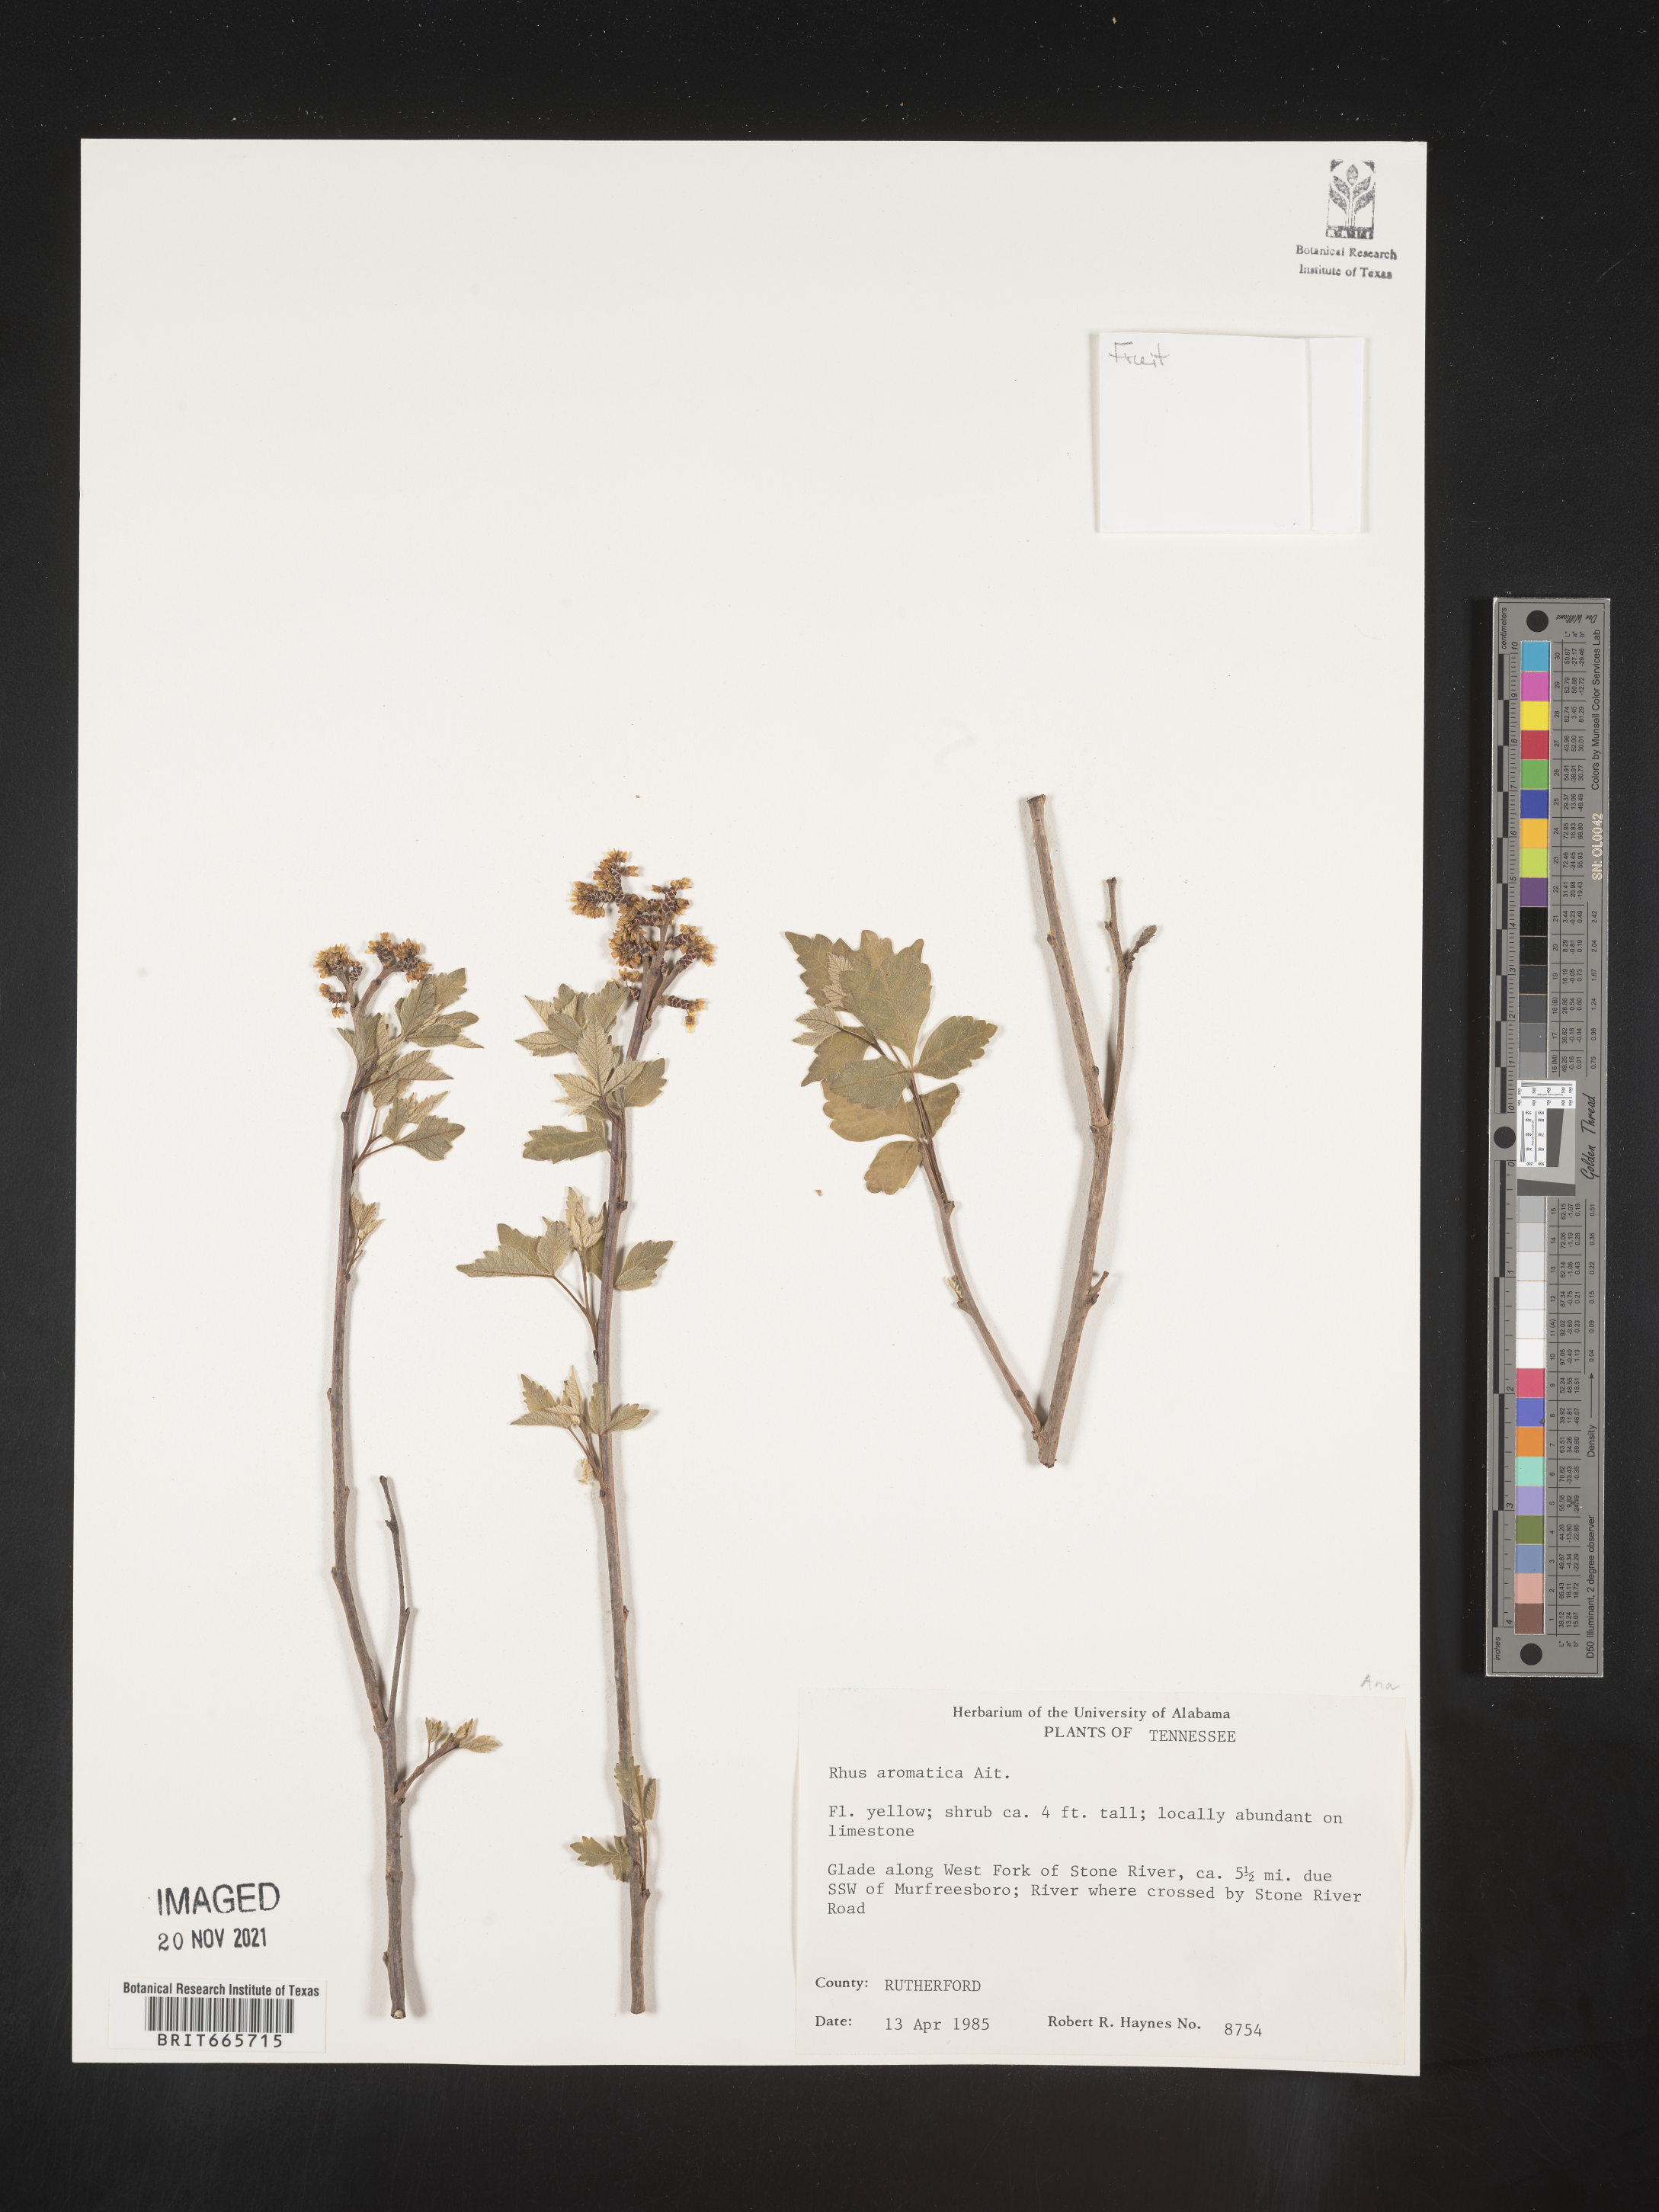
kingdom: Plantae
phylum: Tracheophyta
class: Magnoliopsida
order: Sapindales
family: Anacardiaceae
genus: Rhus
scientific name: Rhus aromatica
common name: Aromatic sumac
